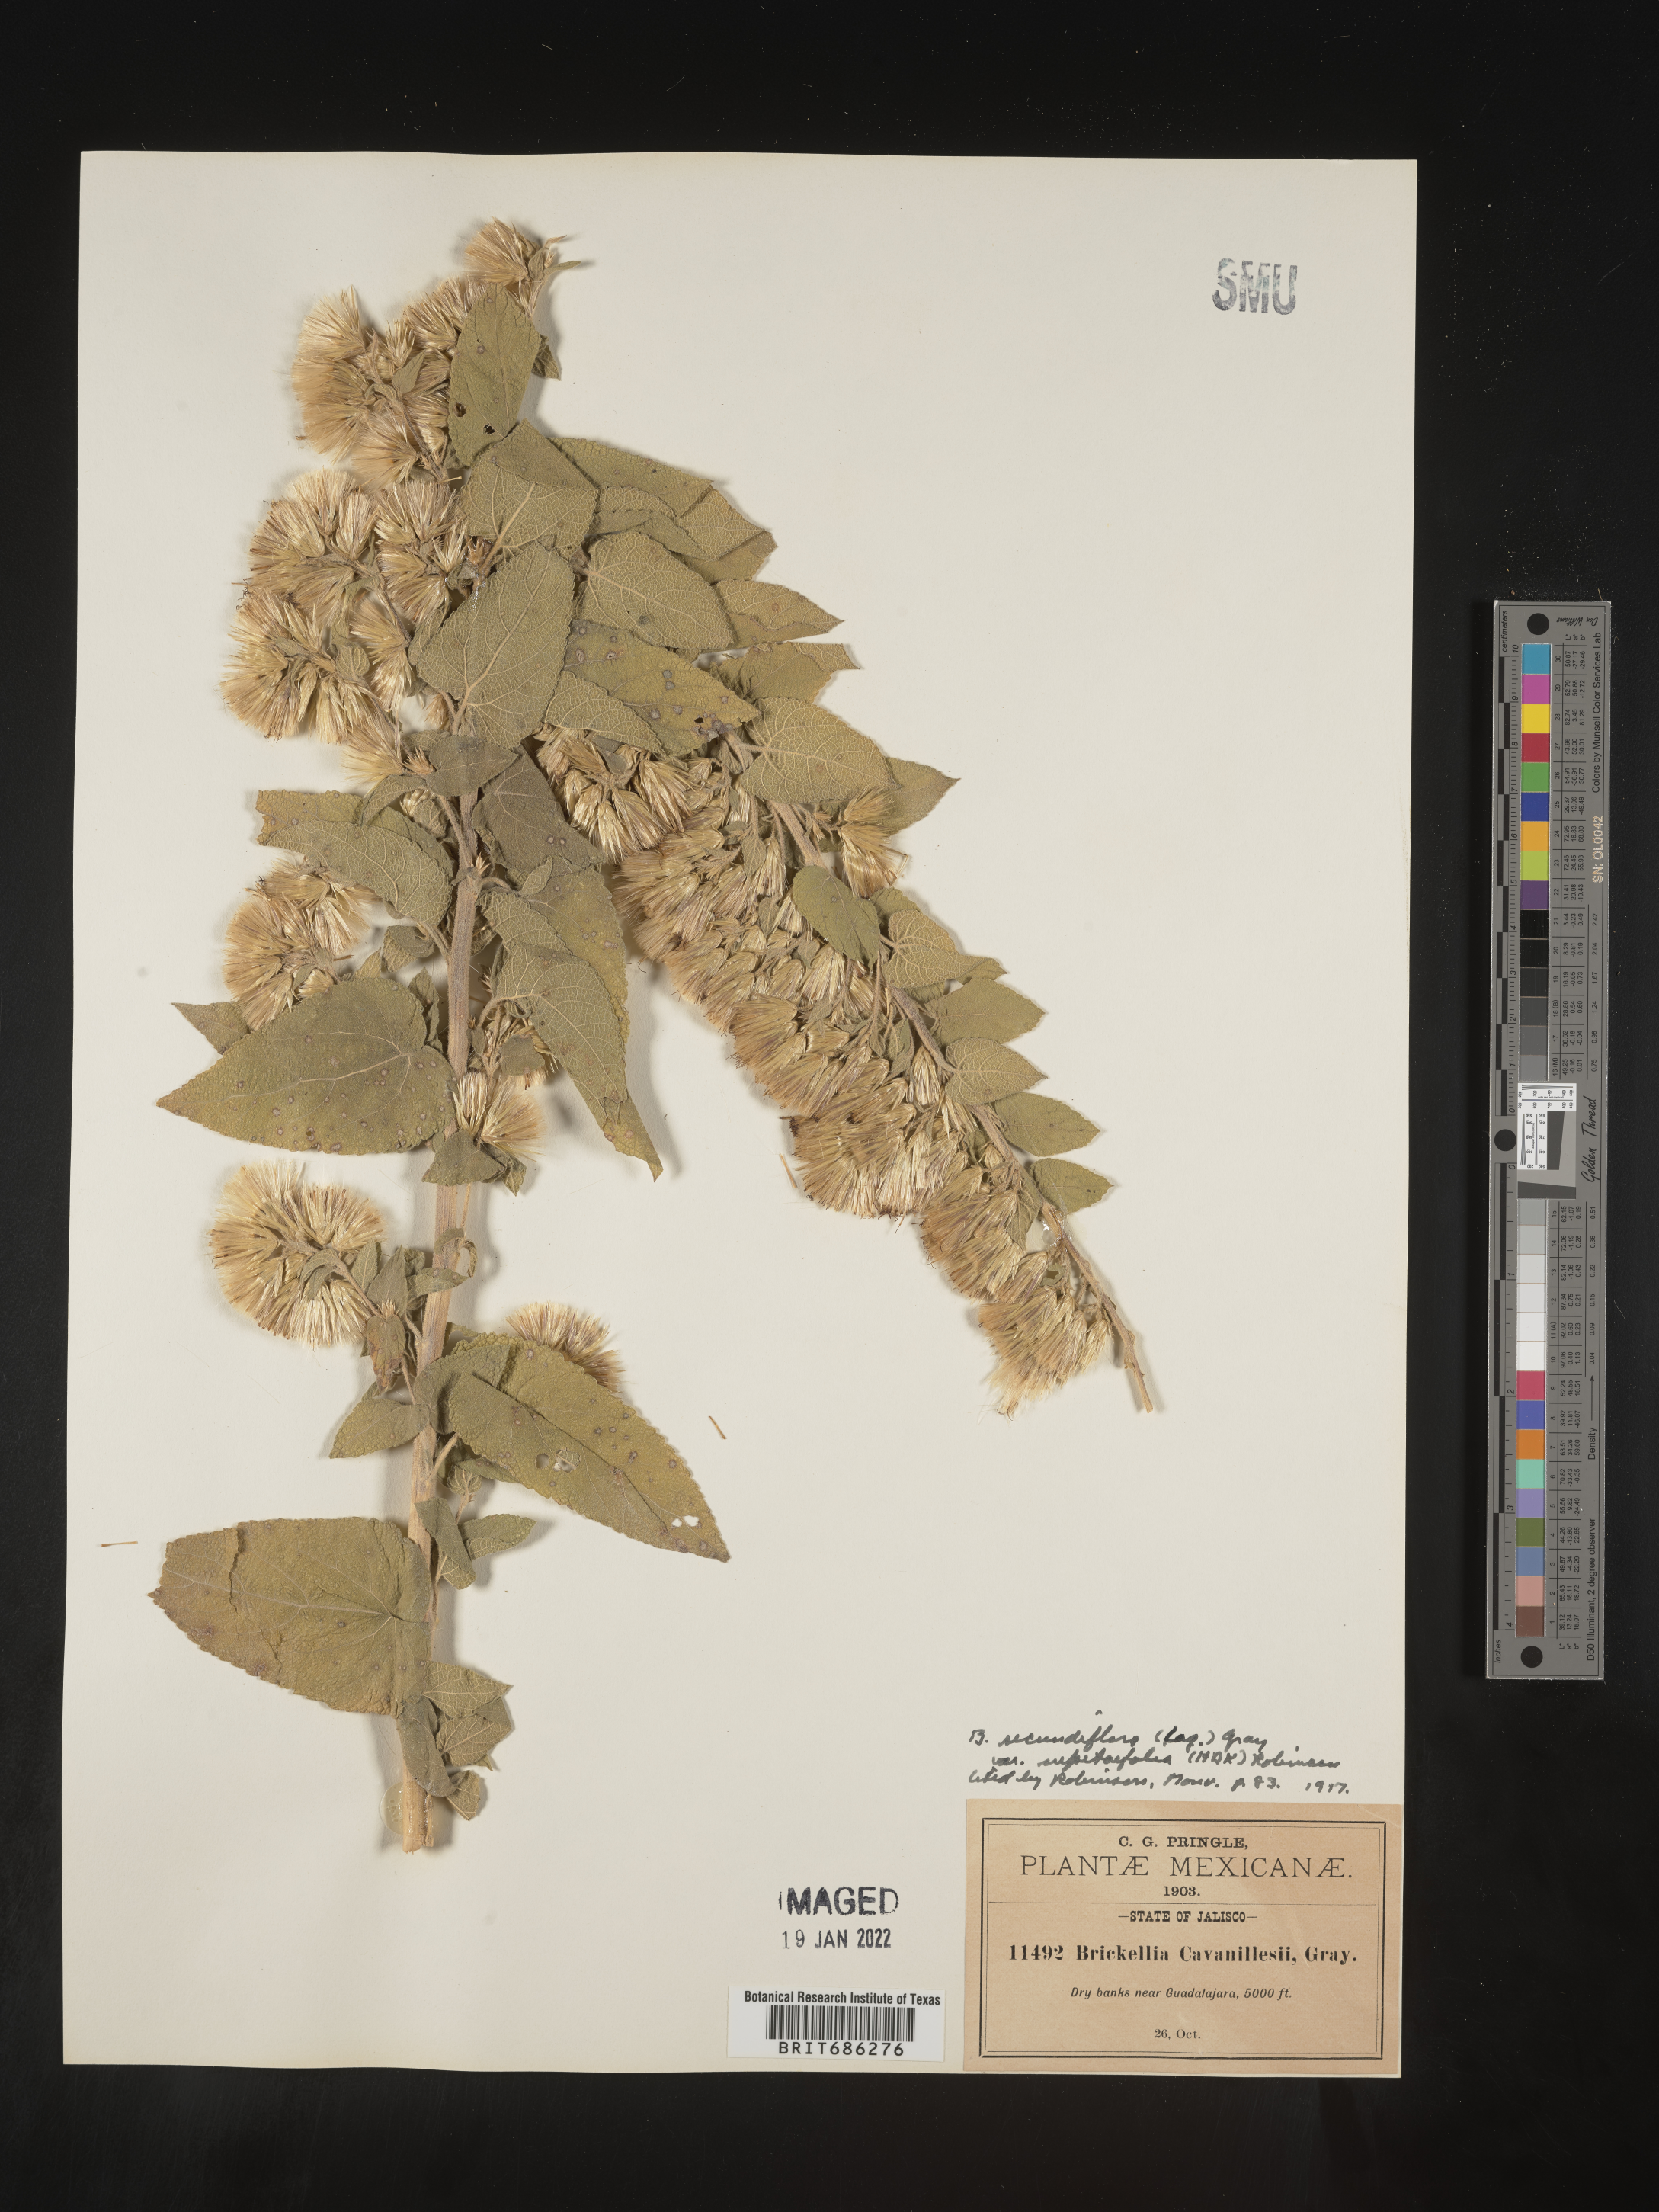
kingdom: Plantae
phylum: Tracheophyta
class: Magnoliopsida
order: Asterales
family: Asteraceae
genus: Brickellia
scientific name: Brickellia secundiflora
